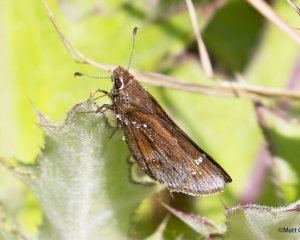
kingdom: Animalia
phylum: Arthropoda
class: Insecta
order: Lepidoptera
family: Hesperiidae
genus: Atrytonopsis
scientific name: Atrytonopsis hianna
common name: Dusted Skipper
